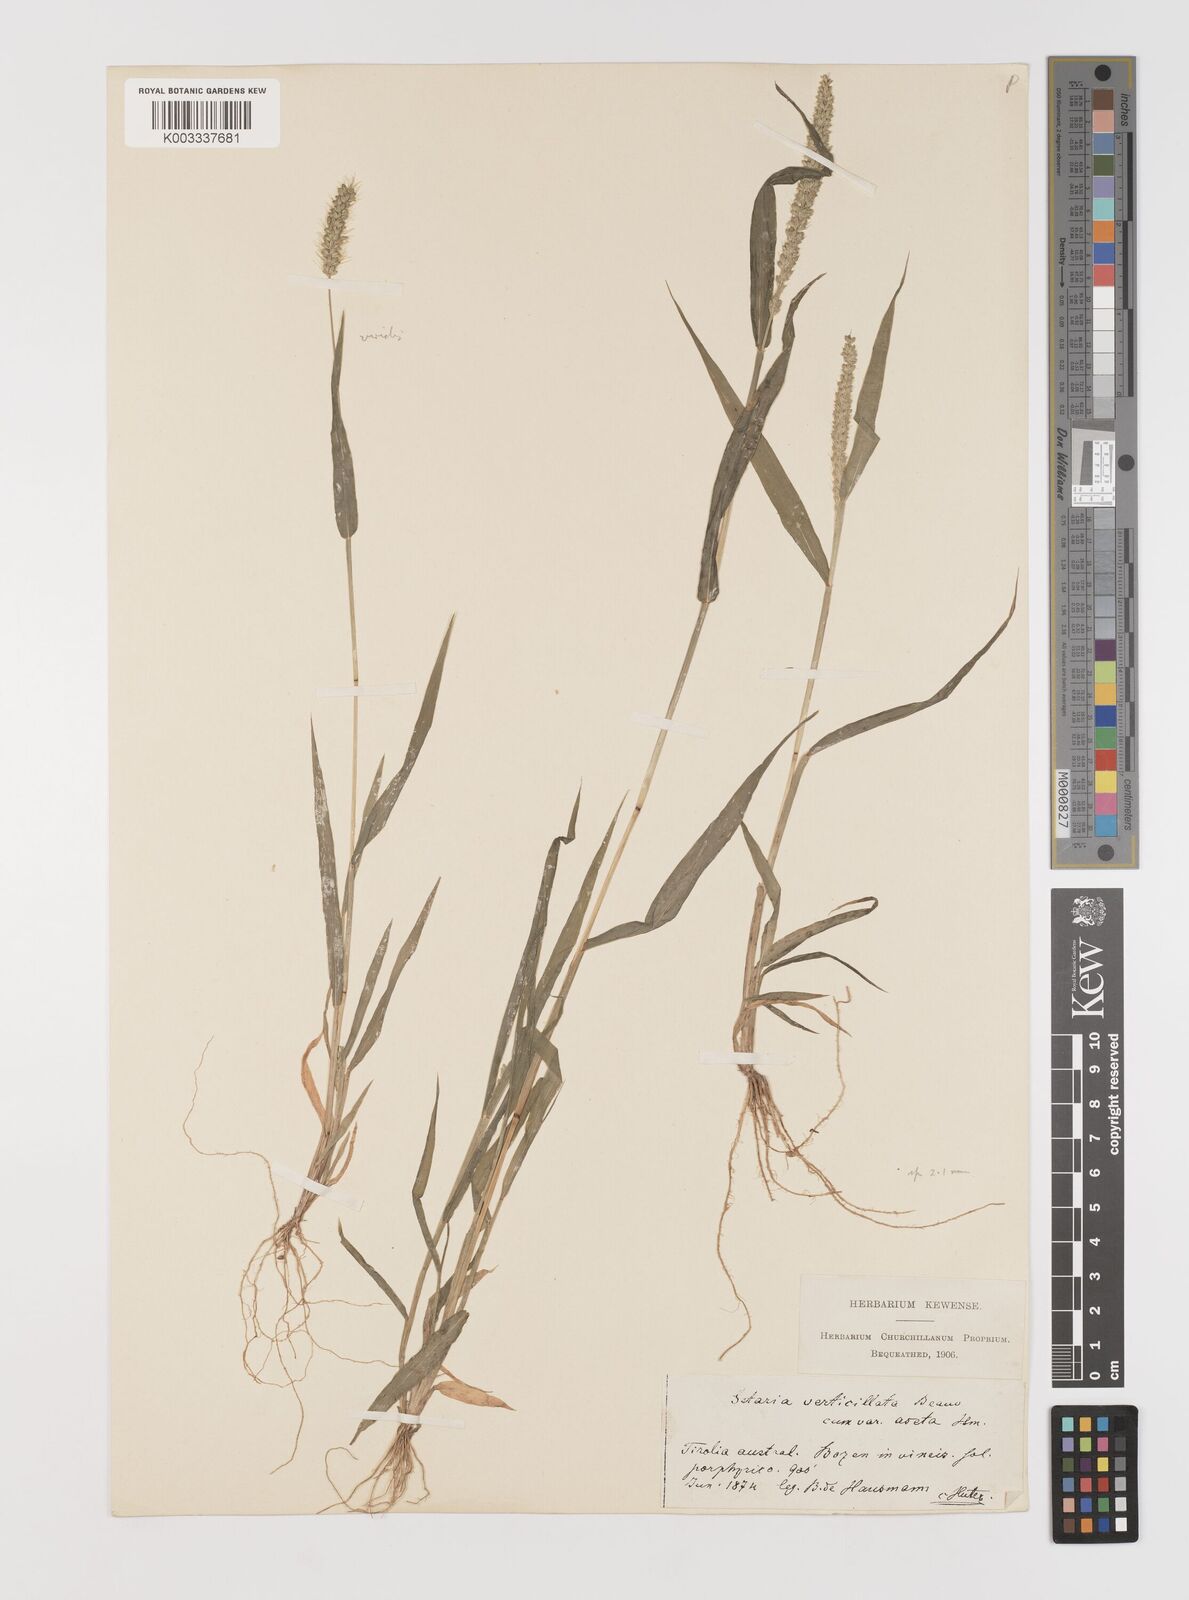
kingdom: Plantae
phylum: Tracheophyta
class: Liliopsida
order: Poales
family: Poaceae
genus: Setaria
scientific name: Setaria verticillata
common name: Hooked bristlegrass
